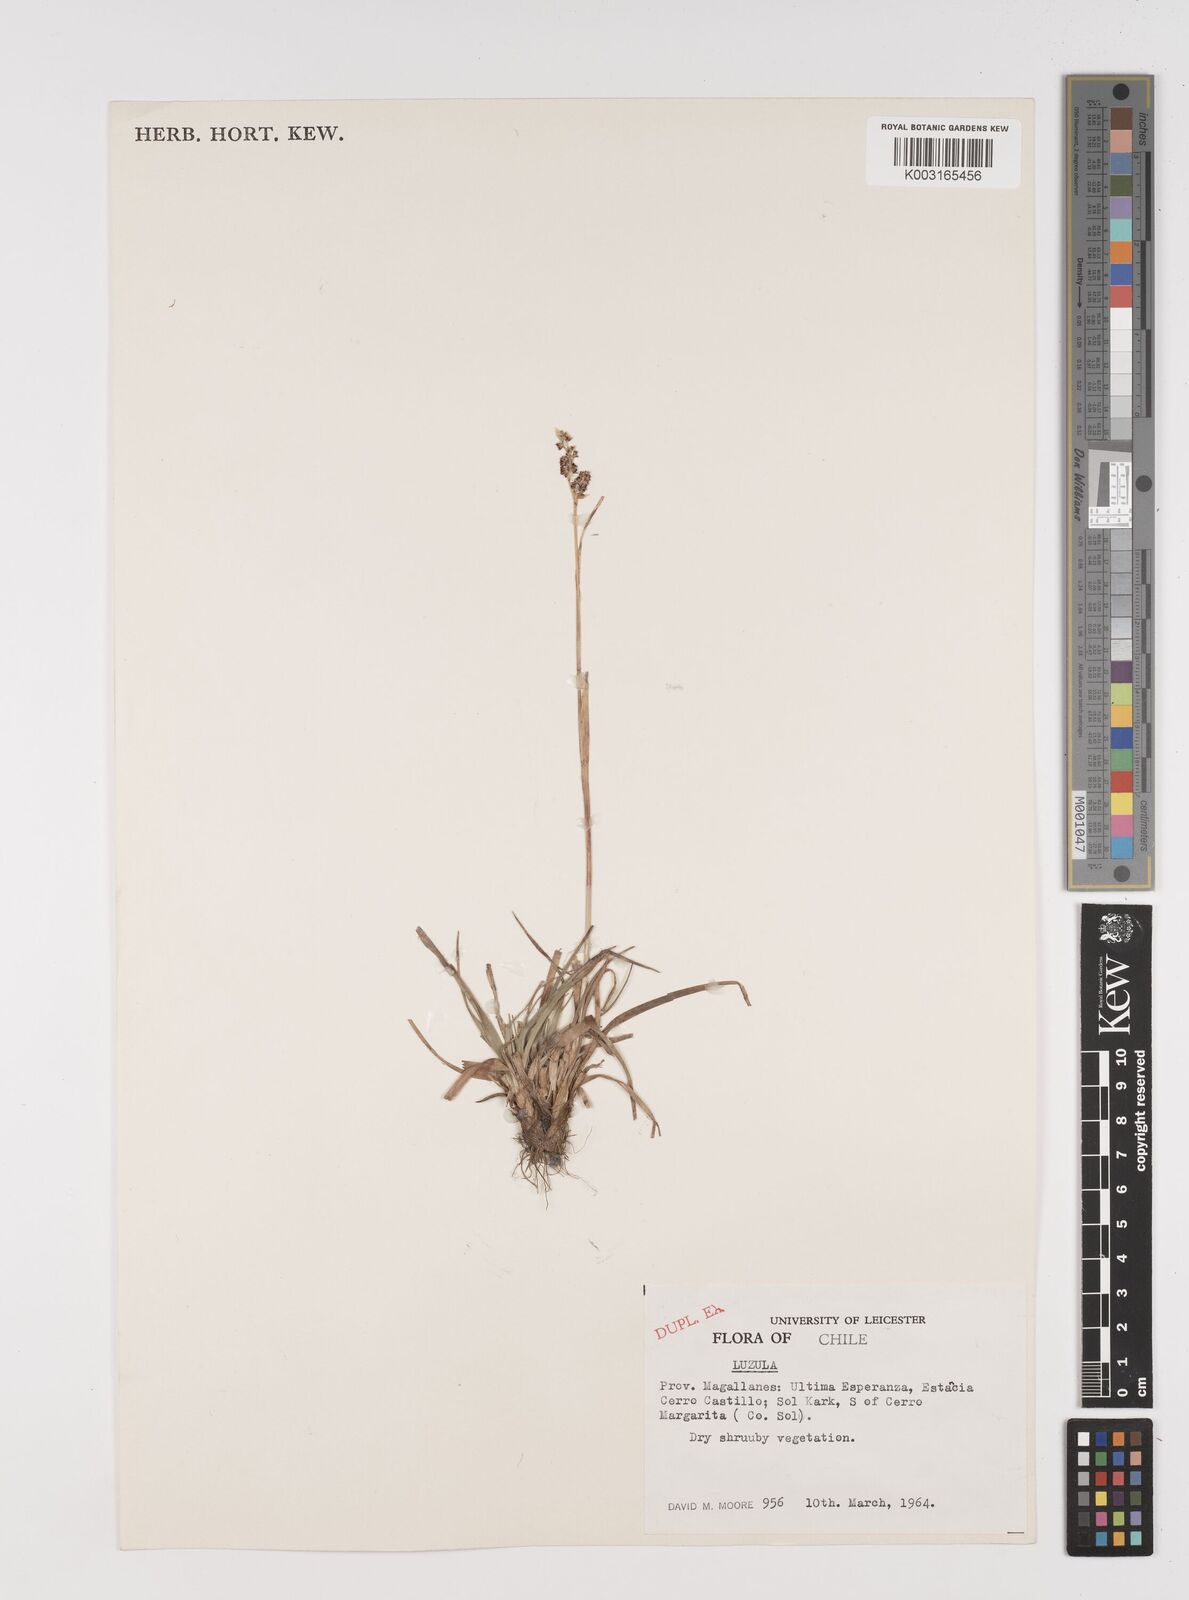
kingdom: Plantae
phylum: Tracheophyta
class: Liliopsida
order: Poales
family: Juncaceae
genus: Luzula
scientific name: Luzula
